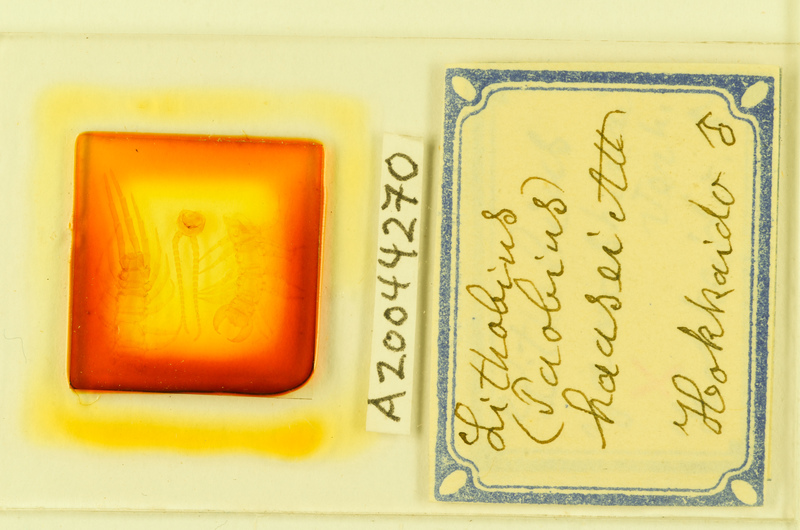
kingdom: Animalia
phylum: Arthropoda
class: Chilopoda
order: Lithobiomorpha
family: Lithobiidae
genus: Lithobius
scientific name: Lithobius rapax
